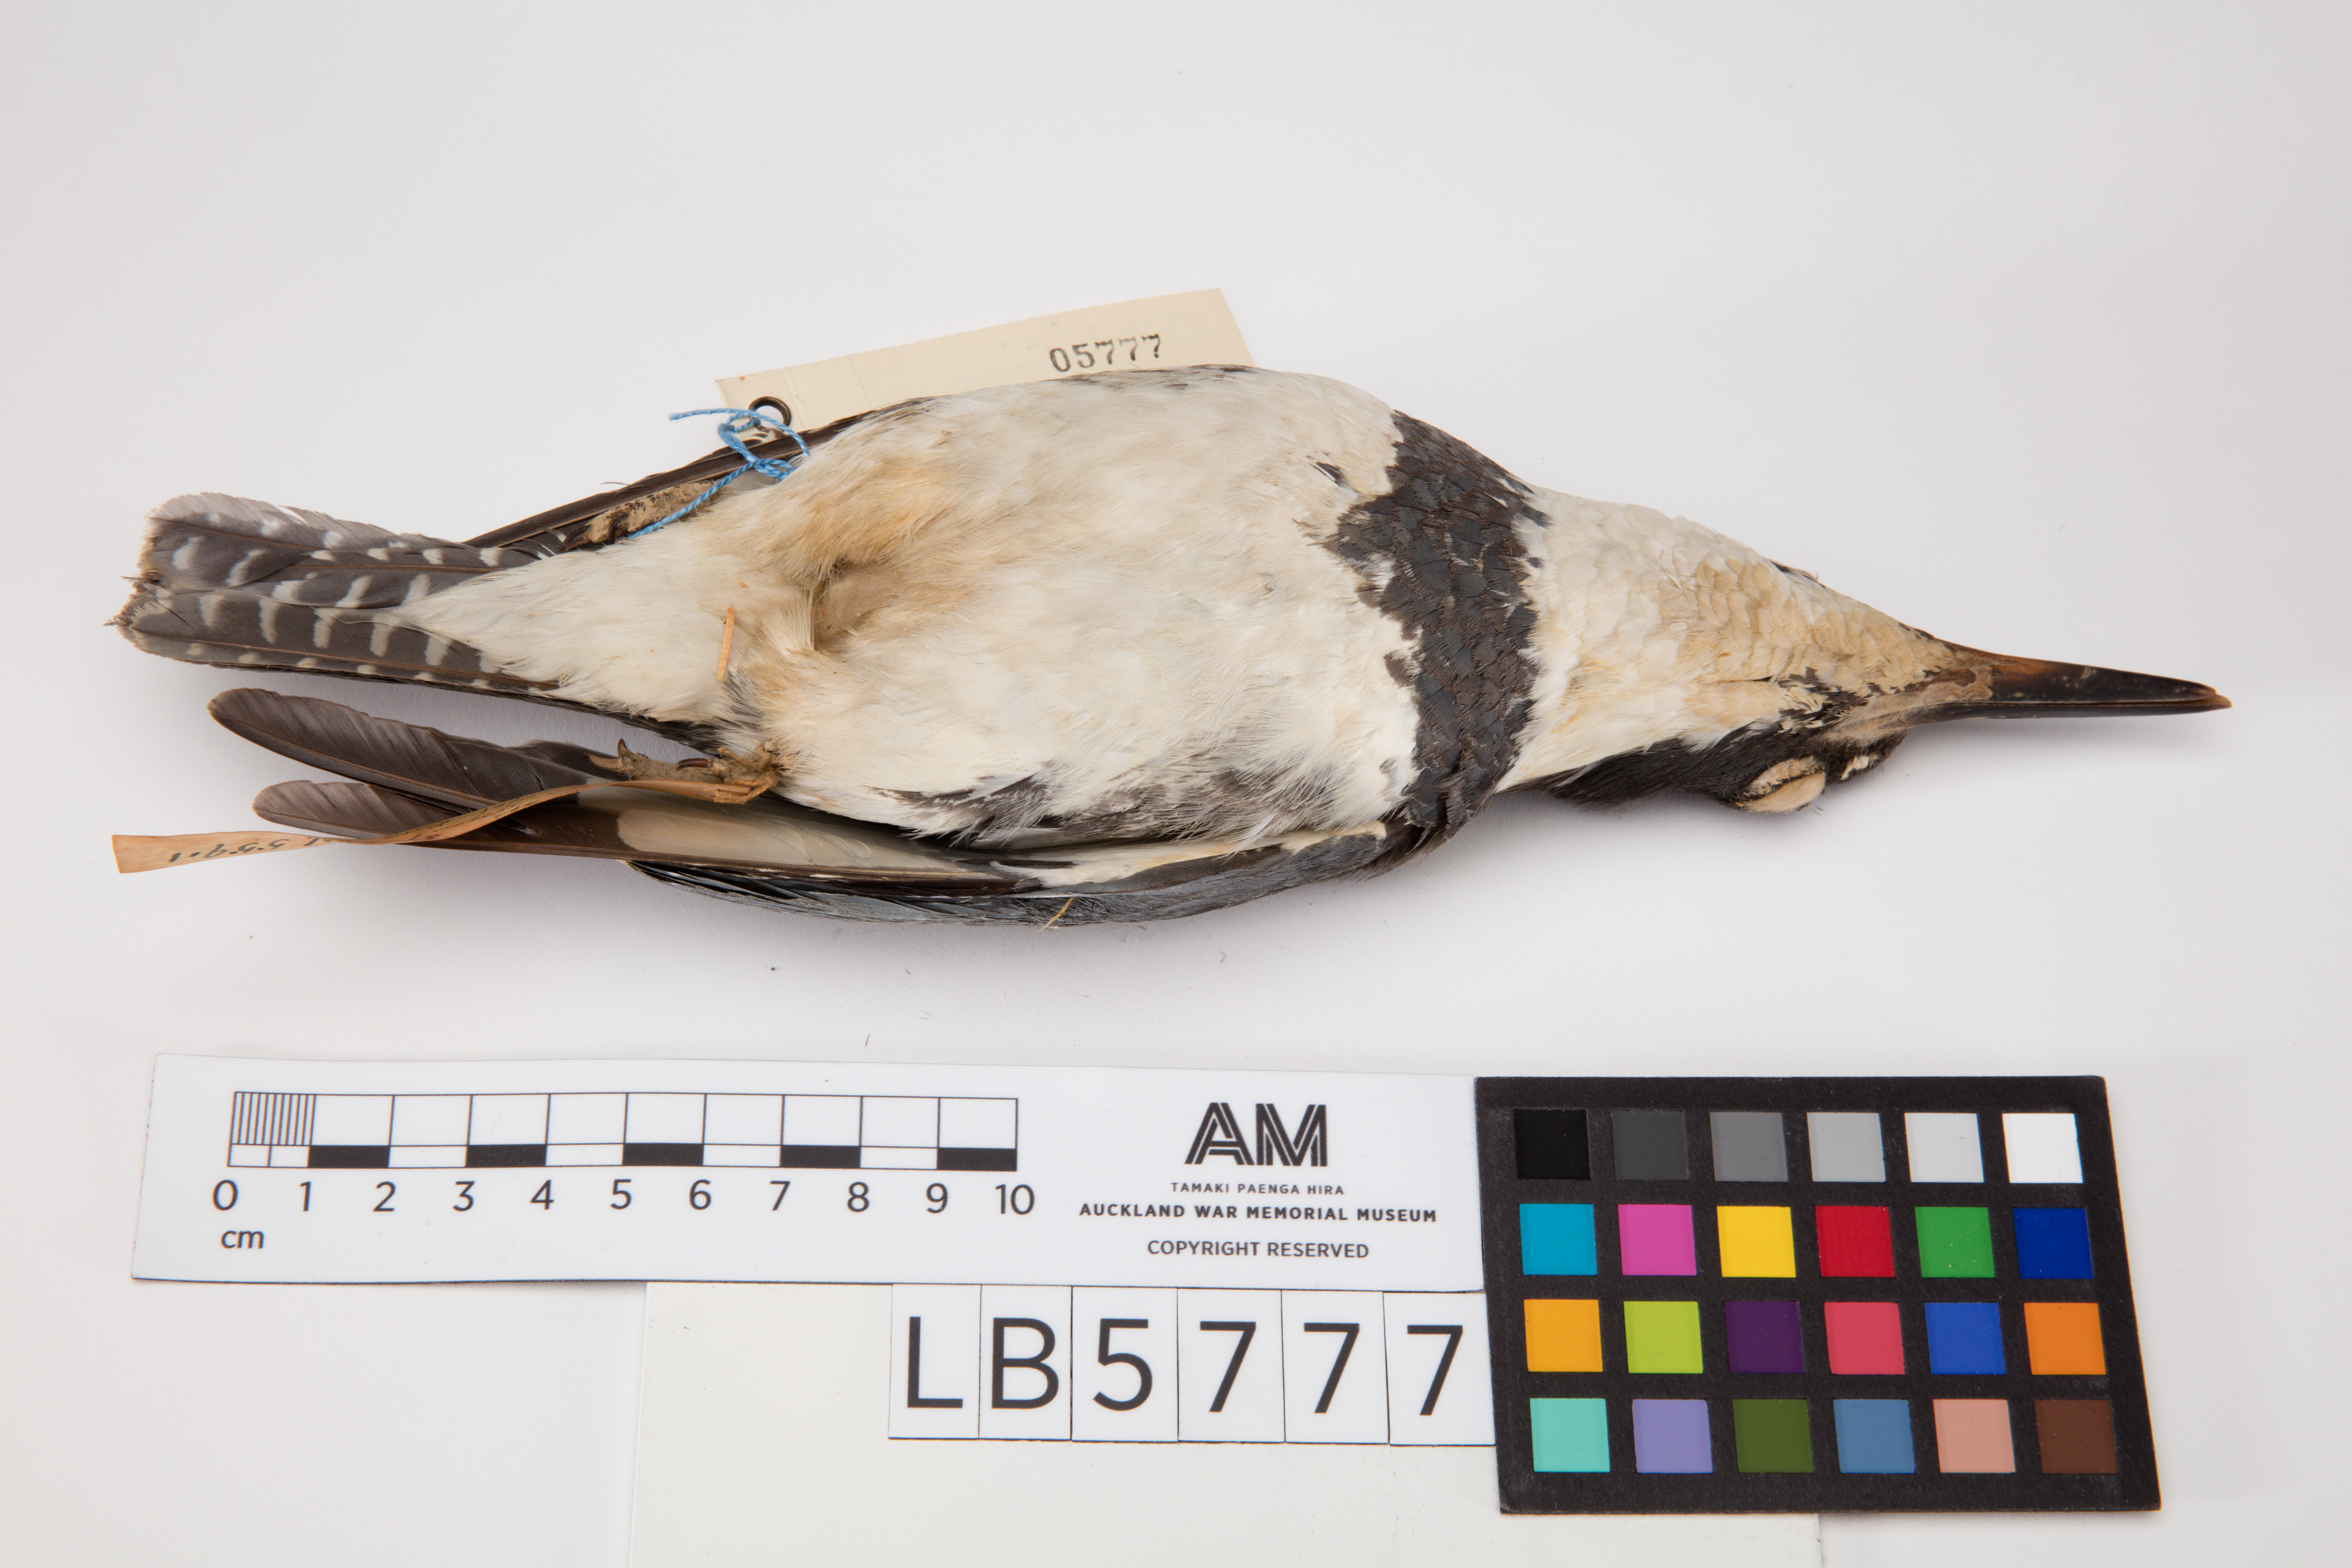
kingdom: Animalia
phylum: Chordata
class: Aves
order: Coraciiformes
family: Alcedinidae
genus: Megaceryle
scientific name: Megaceryle alcyon
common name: Belted kingfisher
